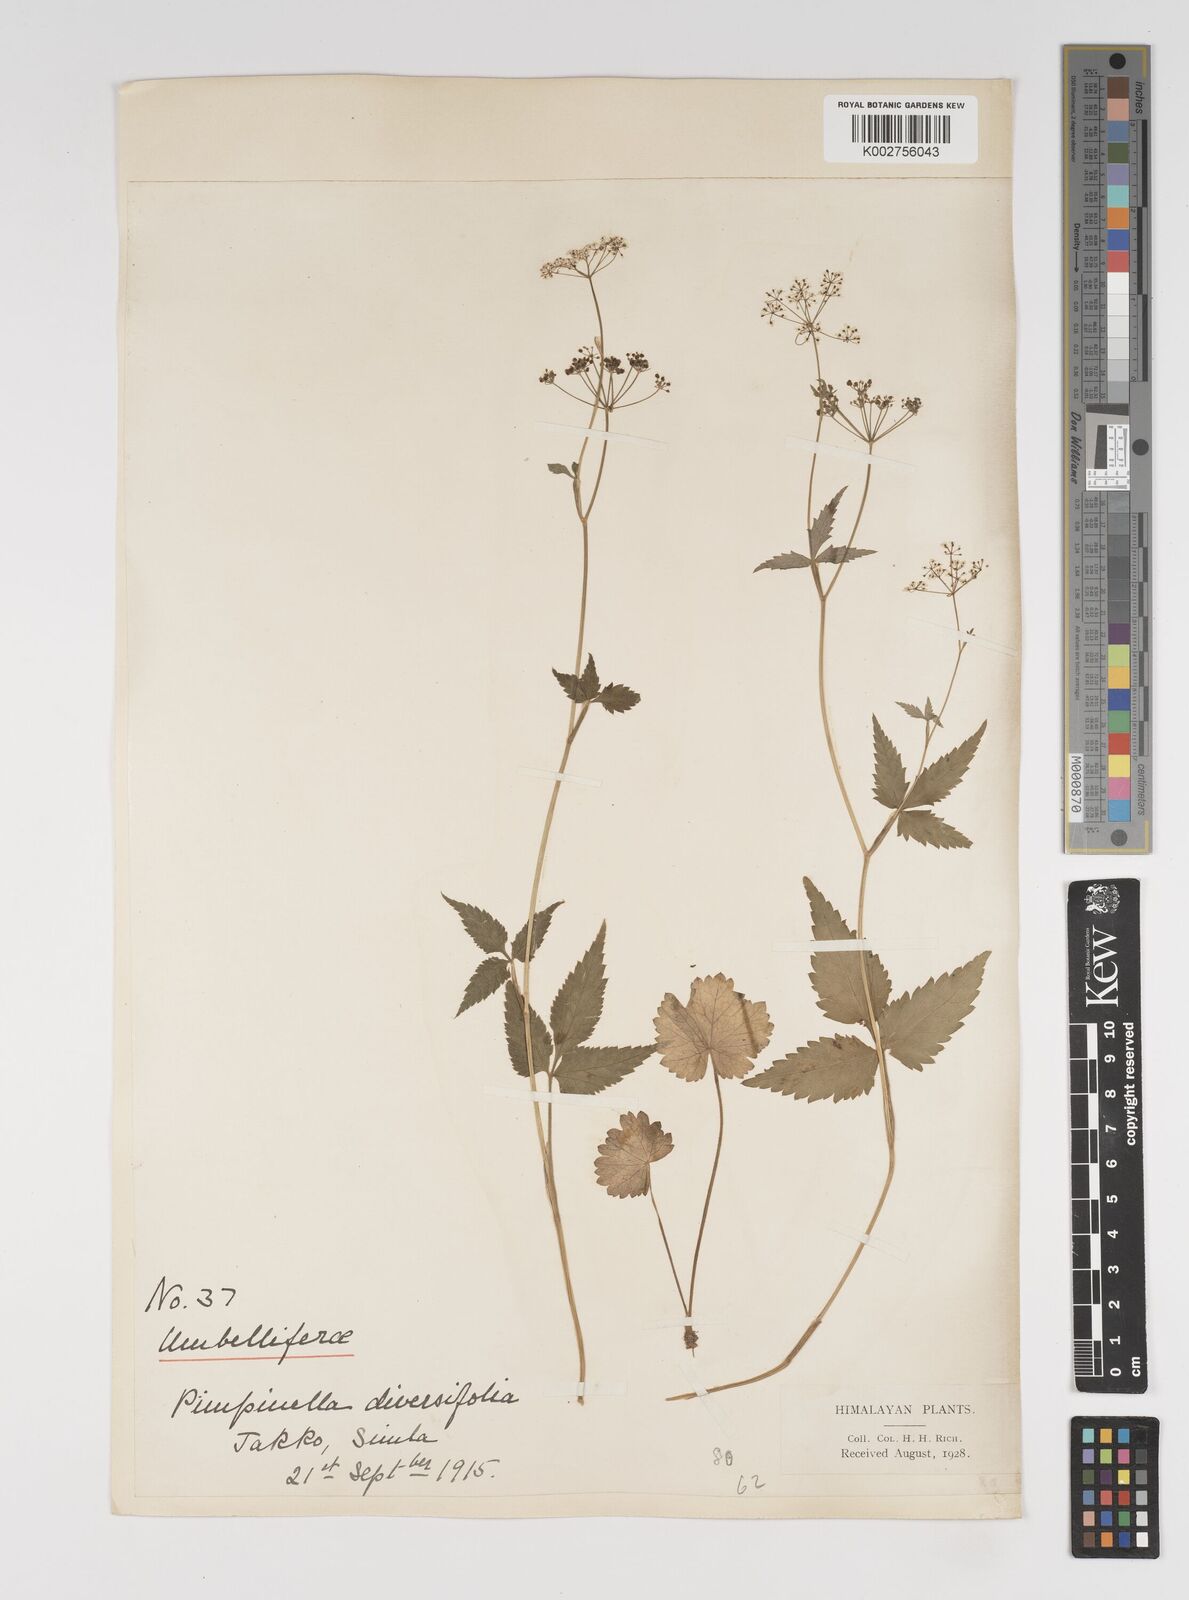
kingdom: Plantae
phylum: Tracheophyta
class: Magnoliopsida
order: Apiales
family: Apiaceae
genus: Pimpinella
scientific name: Pimpinella diversifolia
